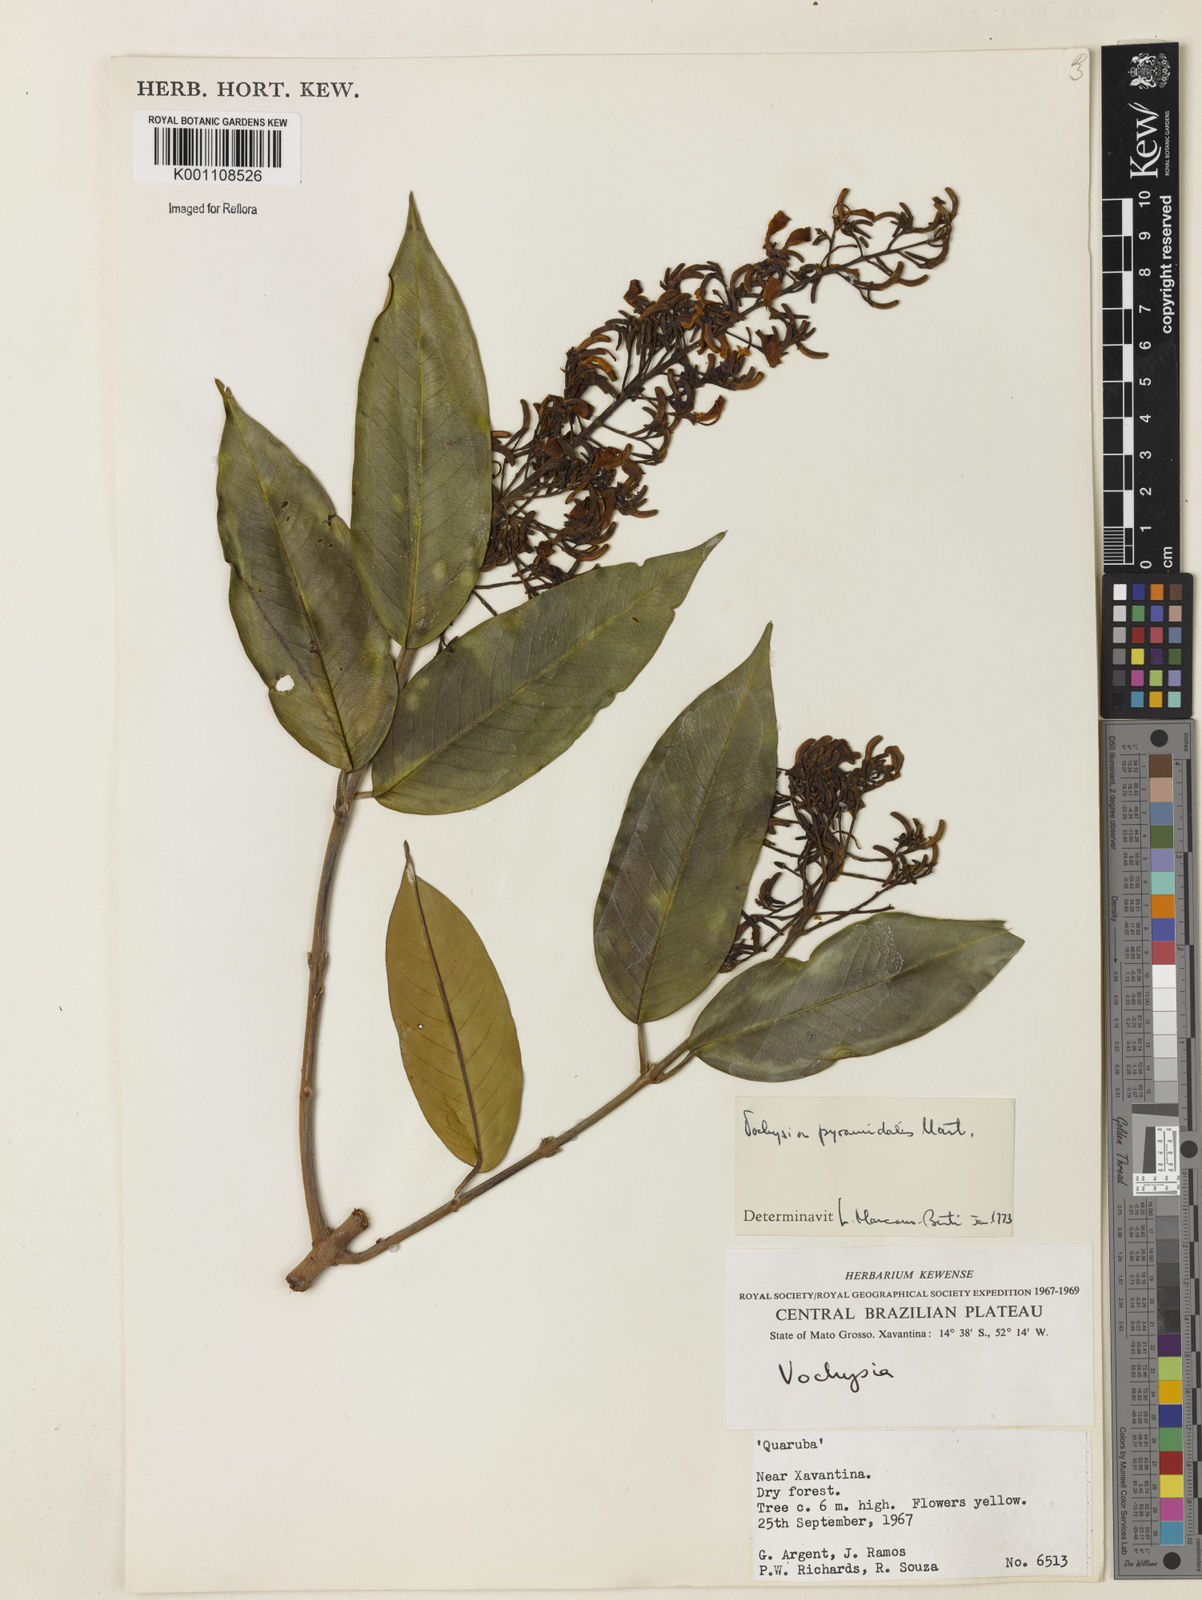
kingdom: Plantae
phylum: Tracheophyta
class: Magnoliopsida
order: Myrtales
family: Vochysiaceae
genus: Vochysia
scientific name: Vochysia pyramidalis
